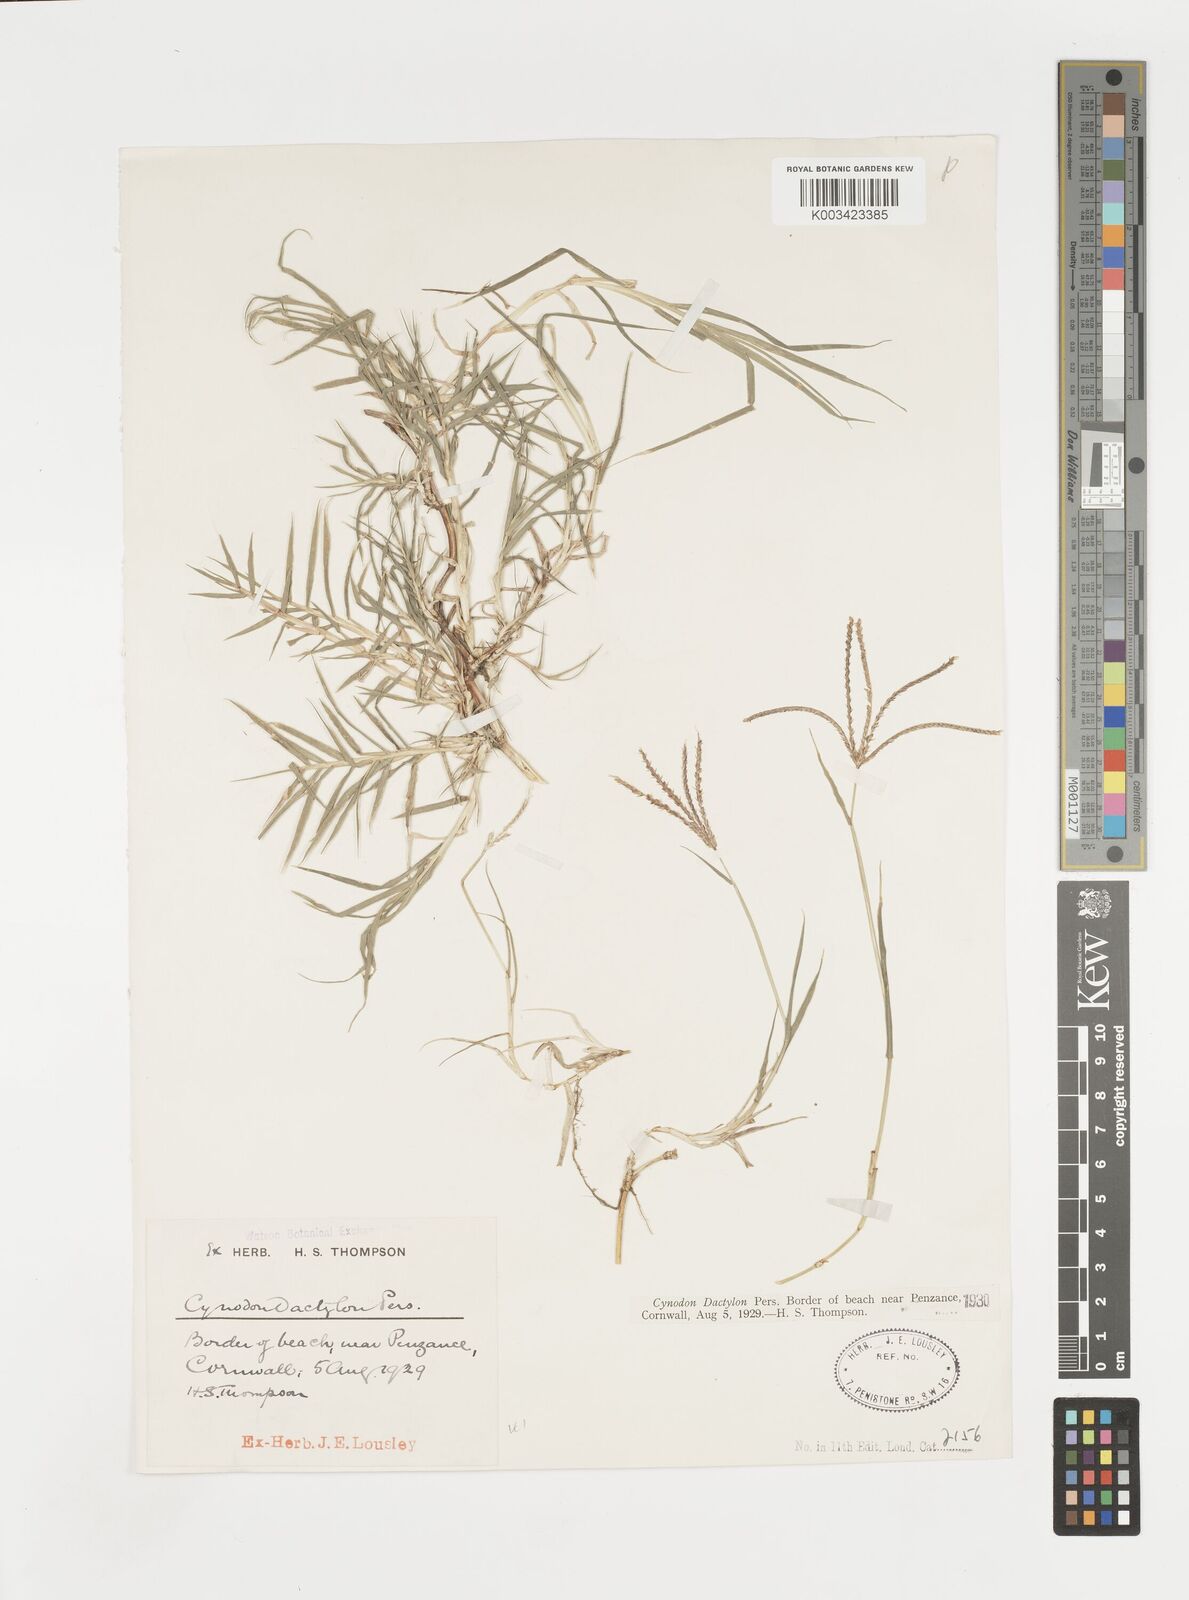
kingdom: Plantae
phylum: Tracheophyta
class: Liliopsida
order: Poales
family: Poaceae
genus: Cynodon
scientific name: Cynodon dactylon
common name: Bermuda grass
